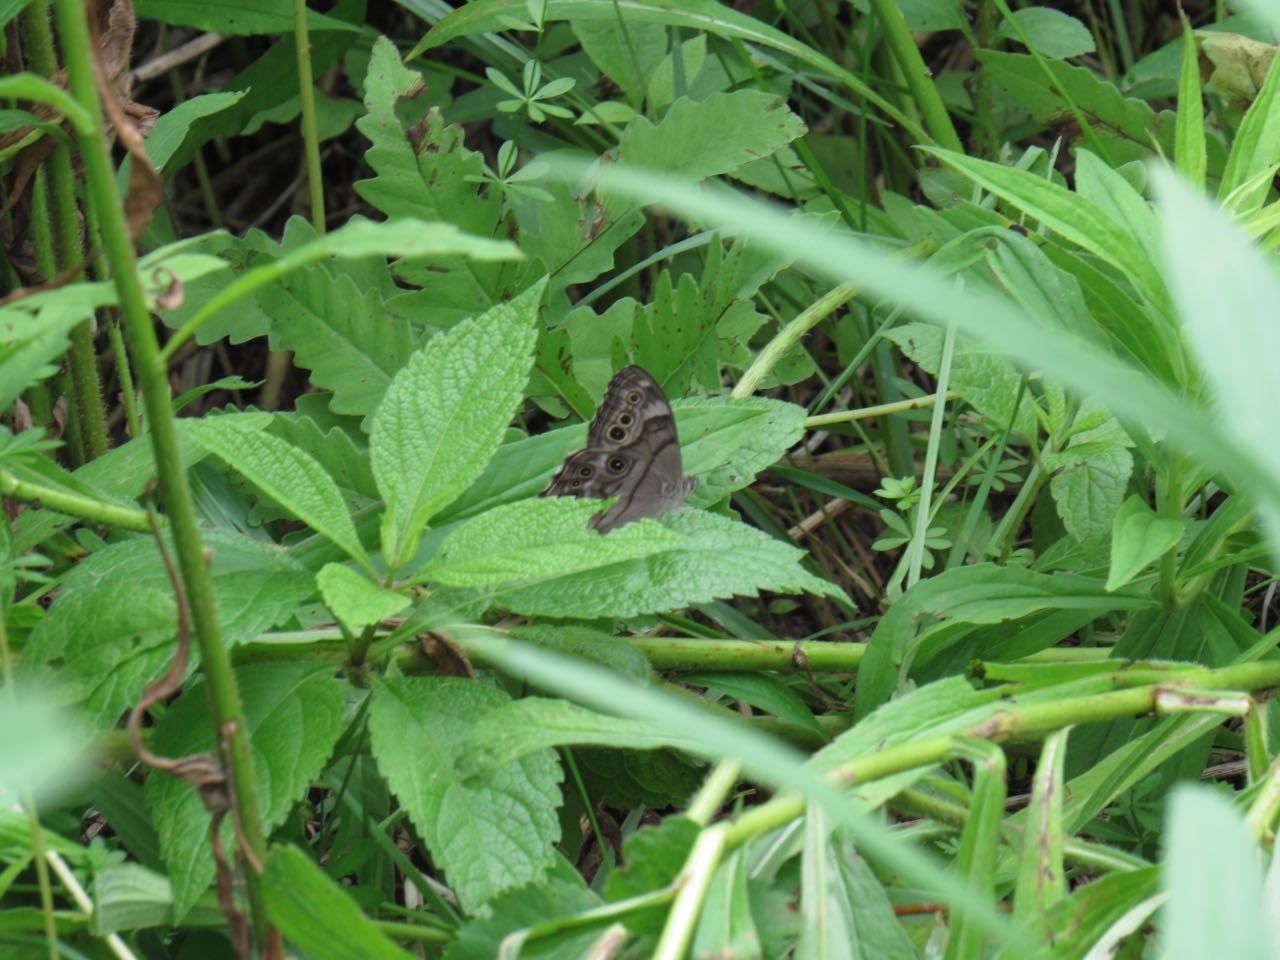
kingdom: Animalia
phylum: Arthropoda
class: Insecta
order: Lepidoptera
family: Nymphalidae
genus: Lethe
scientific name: Lethe anthedon
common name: Northern Pearly-Eye
